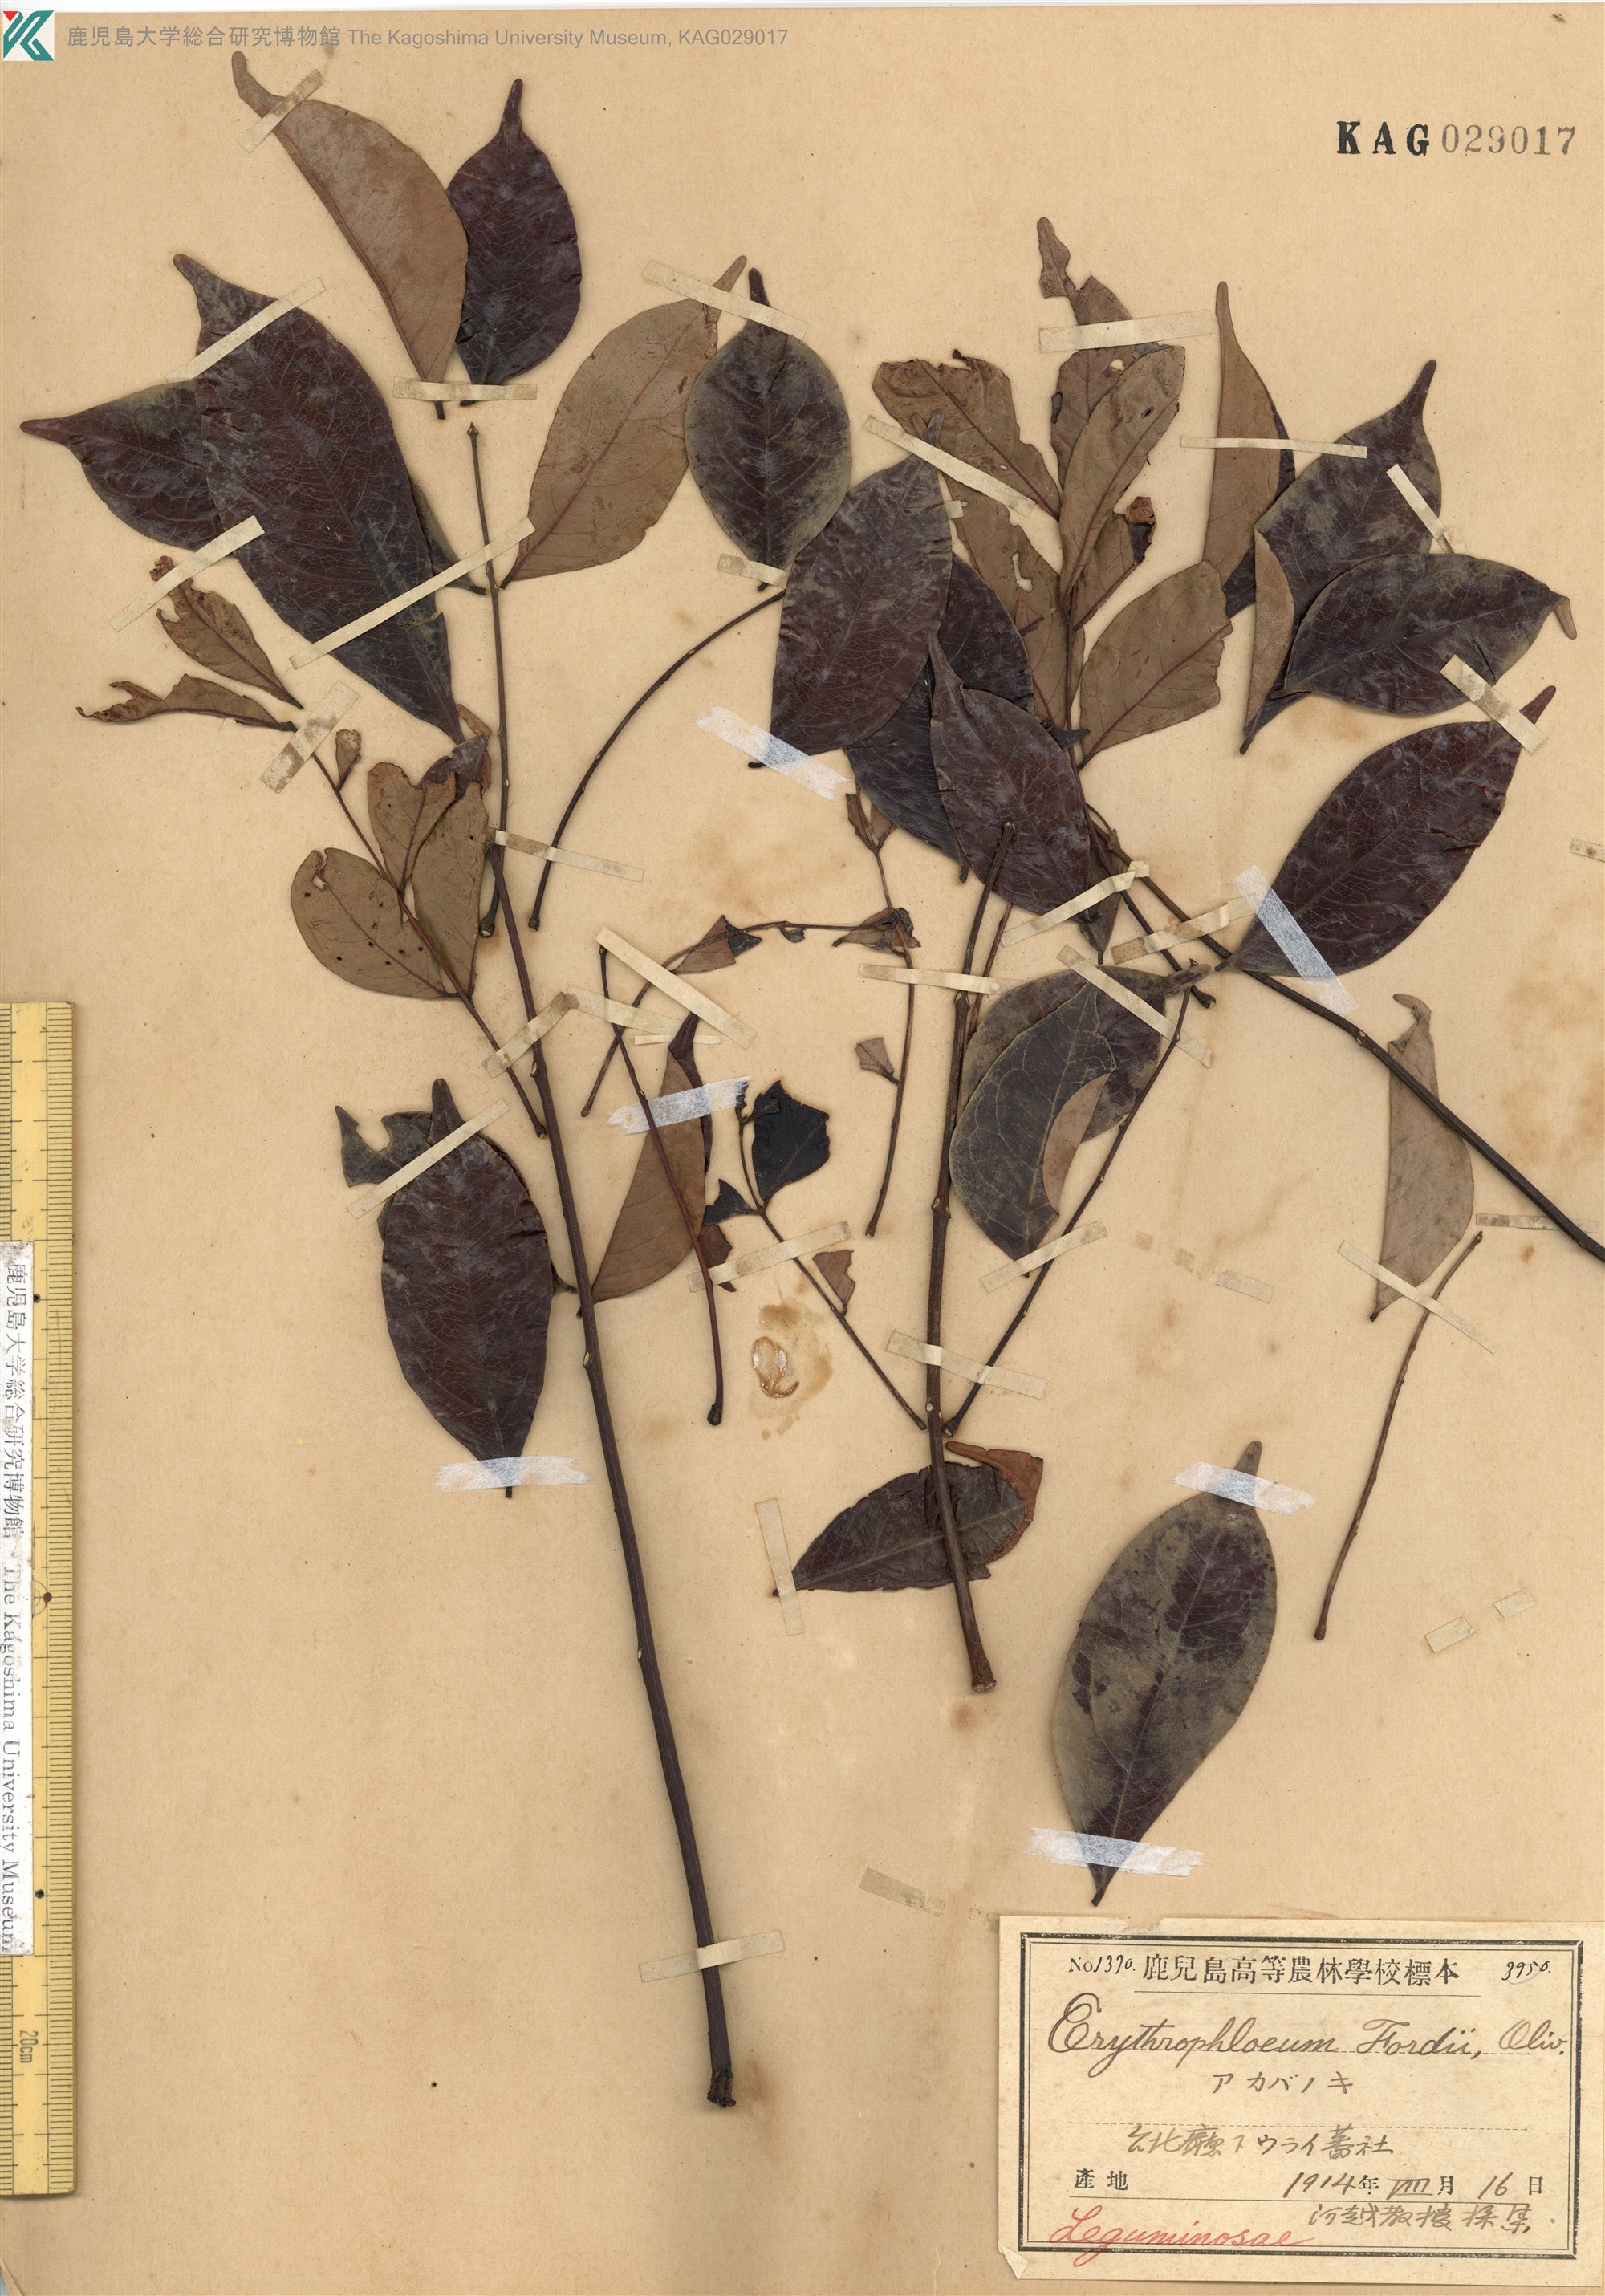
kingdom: Plantae
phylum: Tracheophyta
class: Magnoliopsida
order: Fabales
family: Fabaceae
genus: Archidendron
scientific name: Archidendron lucidum
